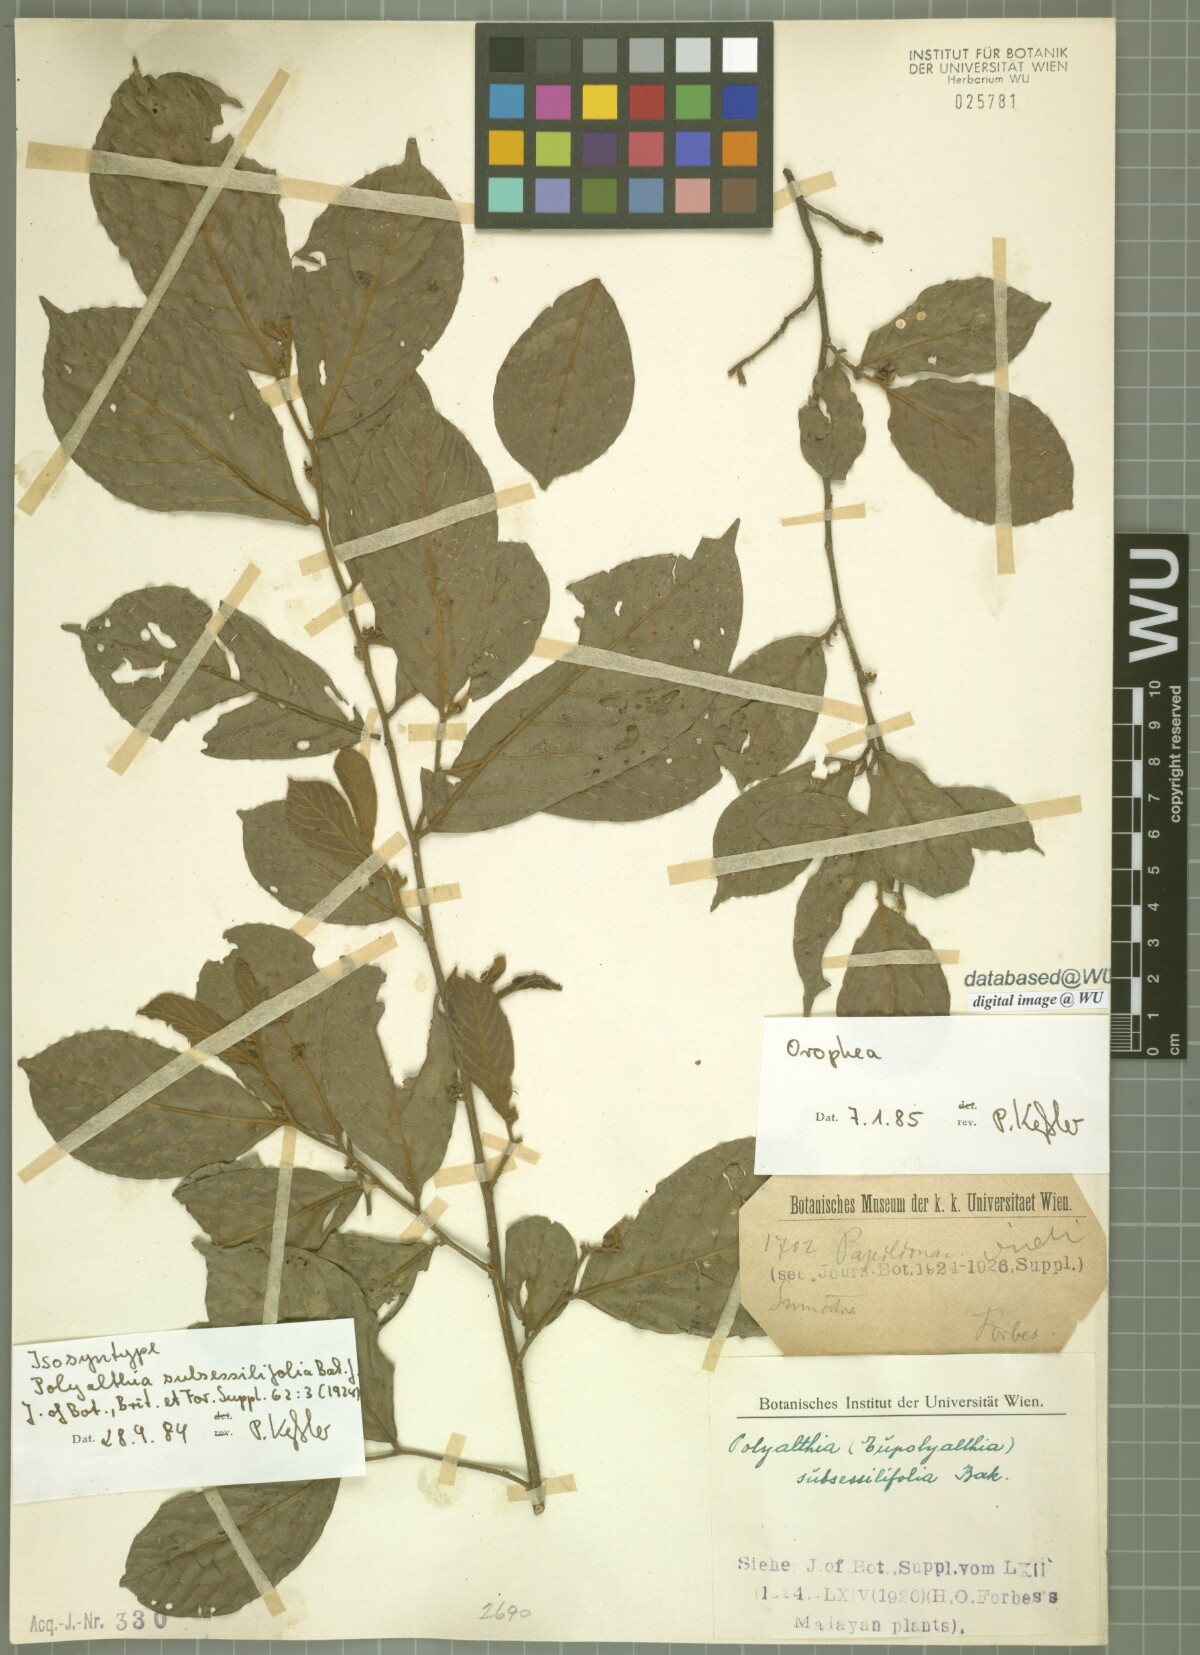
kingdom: Plantae
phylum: Tracheophyta
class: Magnoliopsida
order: Magnoliales
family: Annonaceae
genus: Polyalthia
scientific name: Polyalthia obliqua
